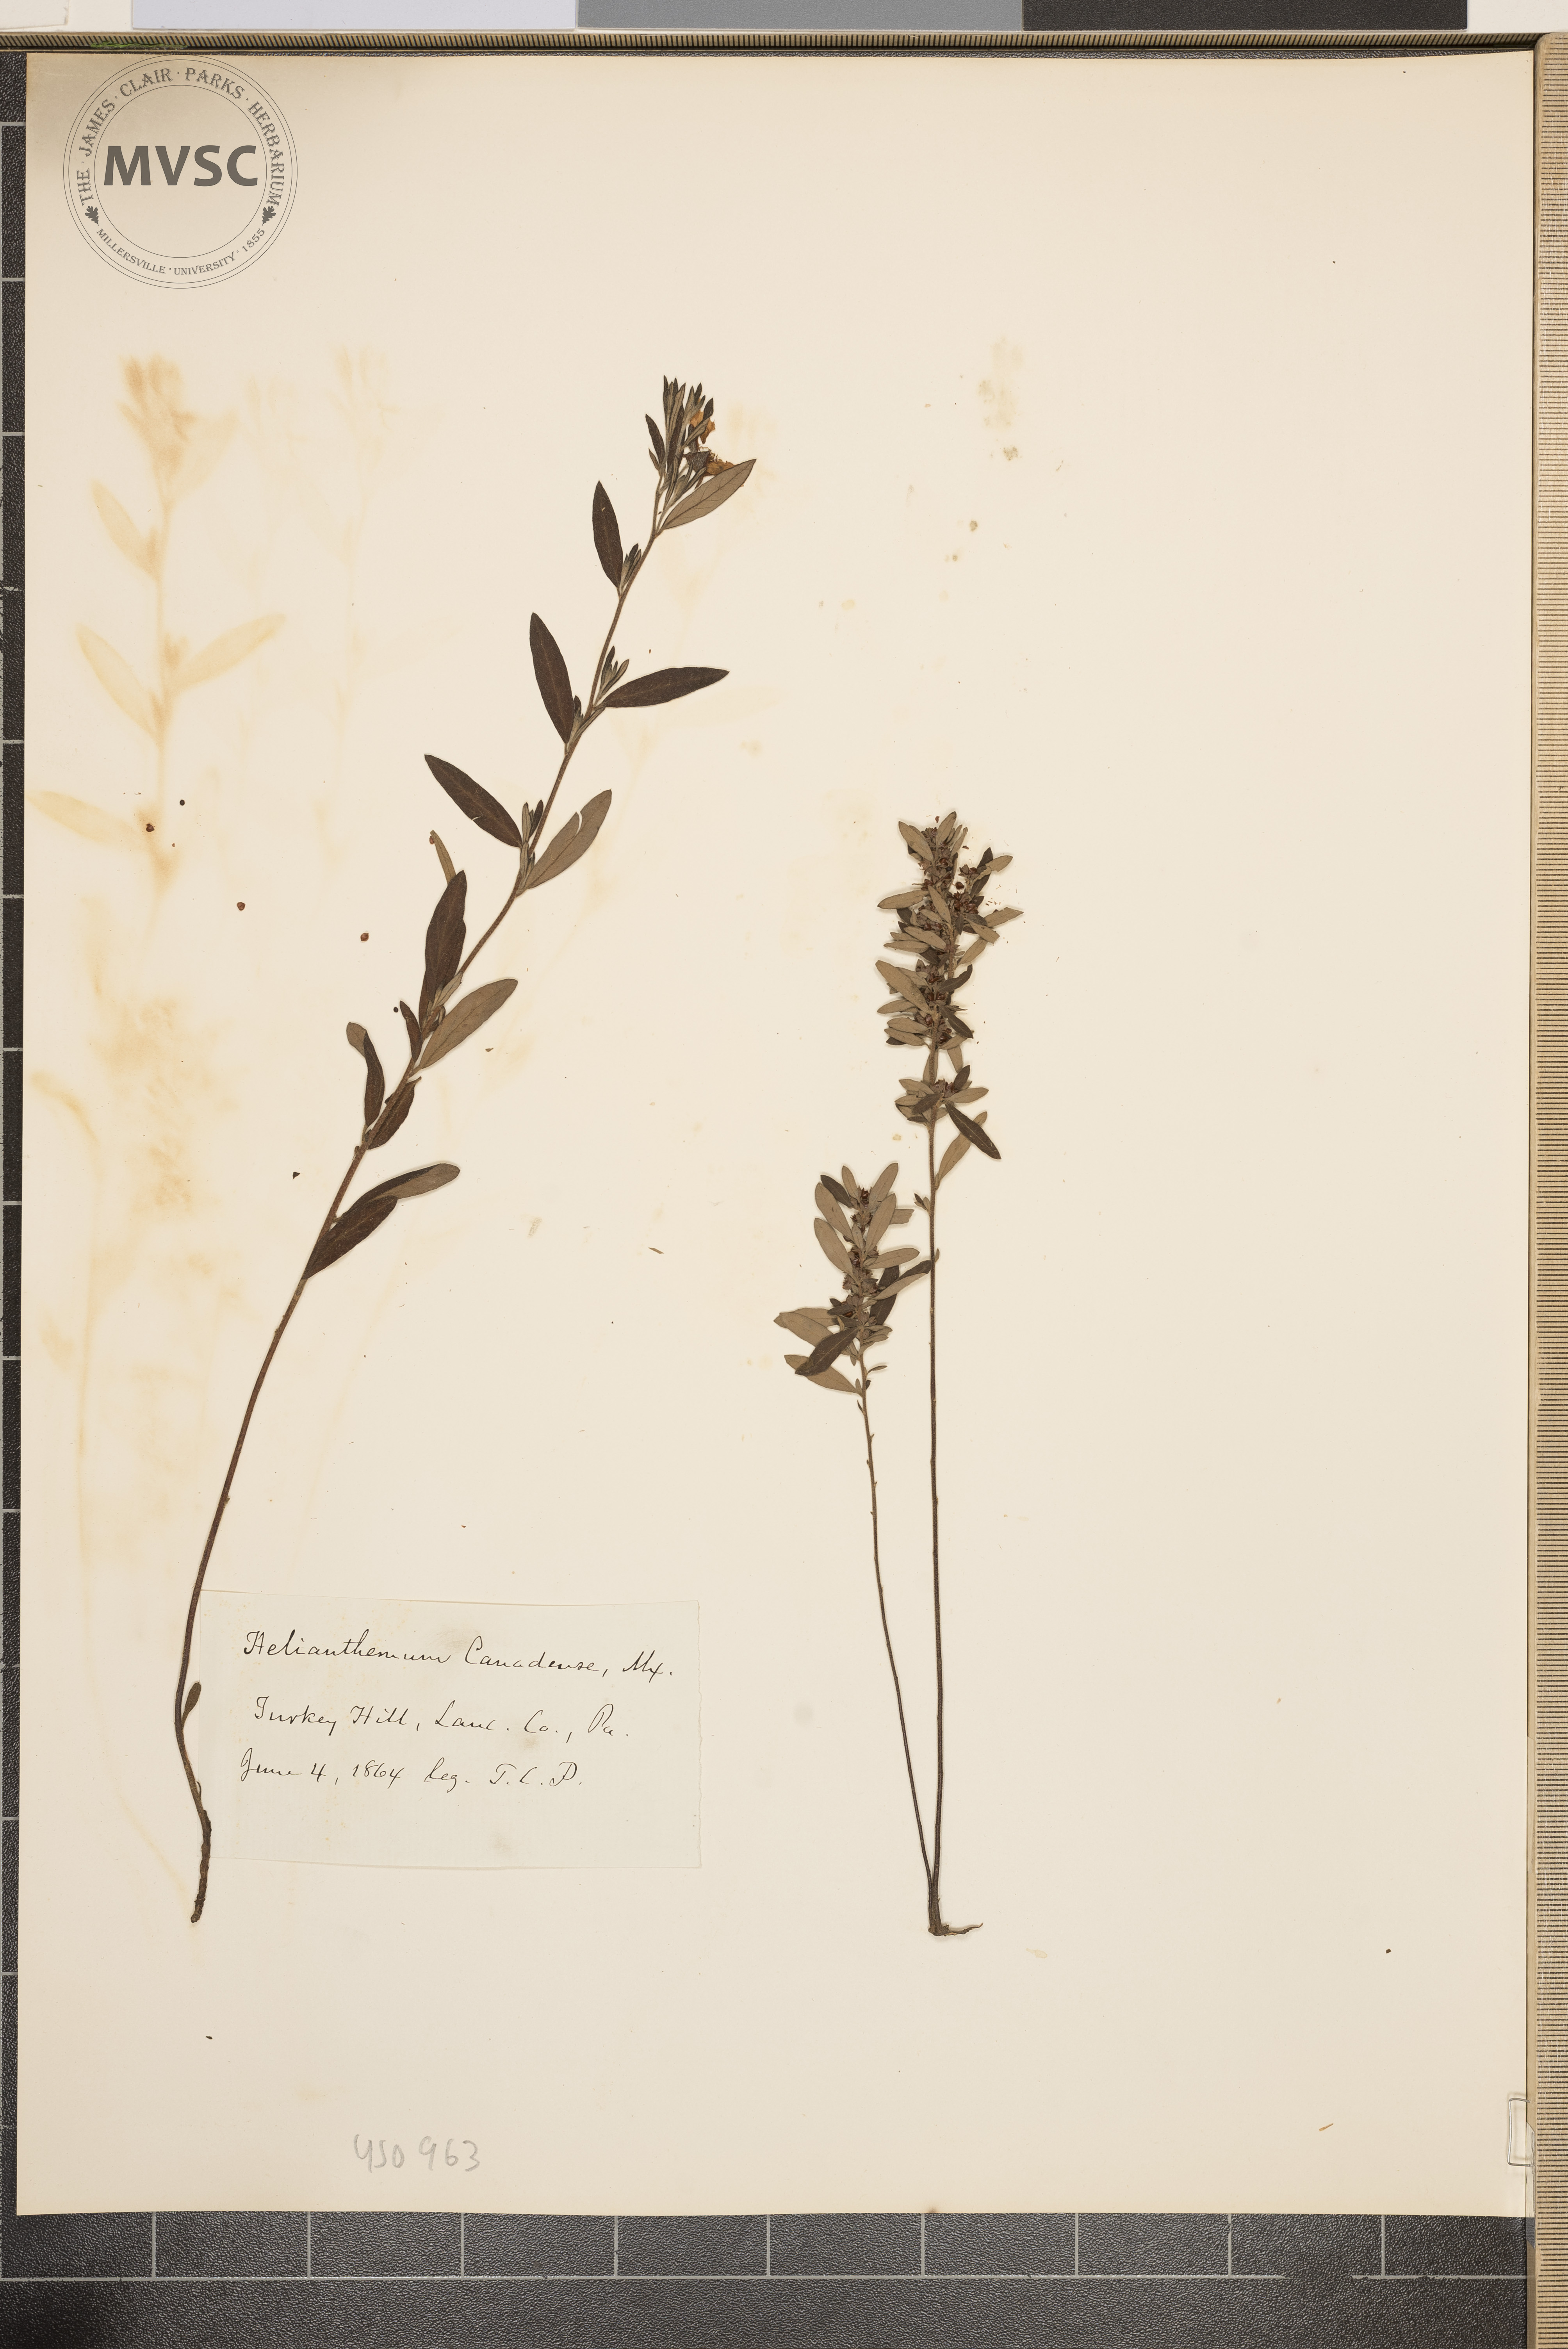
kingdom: Plantae
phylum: Tracheophyta
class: Magnoliopsida
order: Malvales
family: Cistaceae
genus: Crocanthemum
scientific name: Crocanthemum canadense
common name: Canada frostweed
